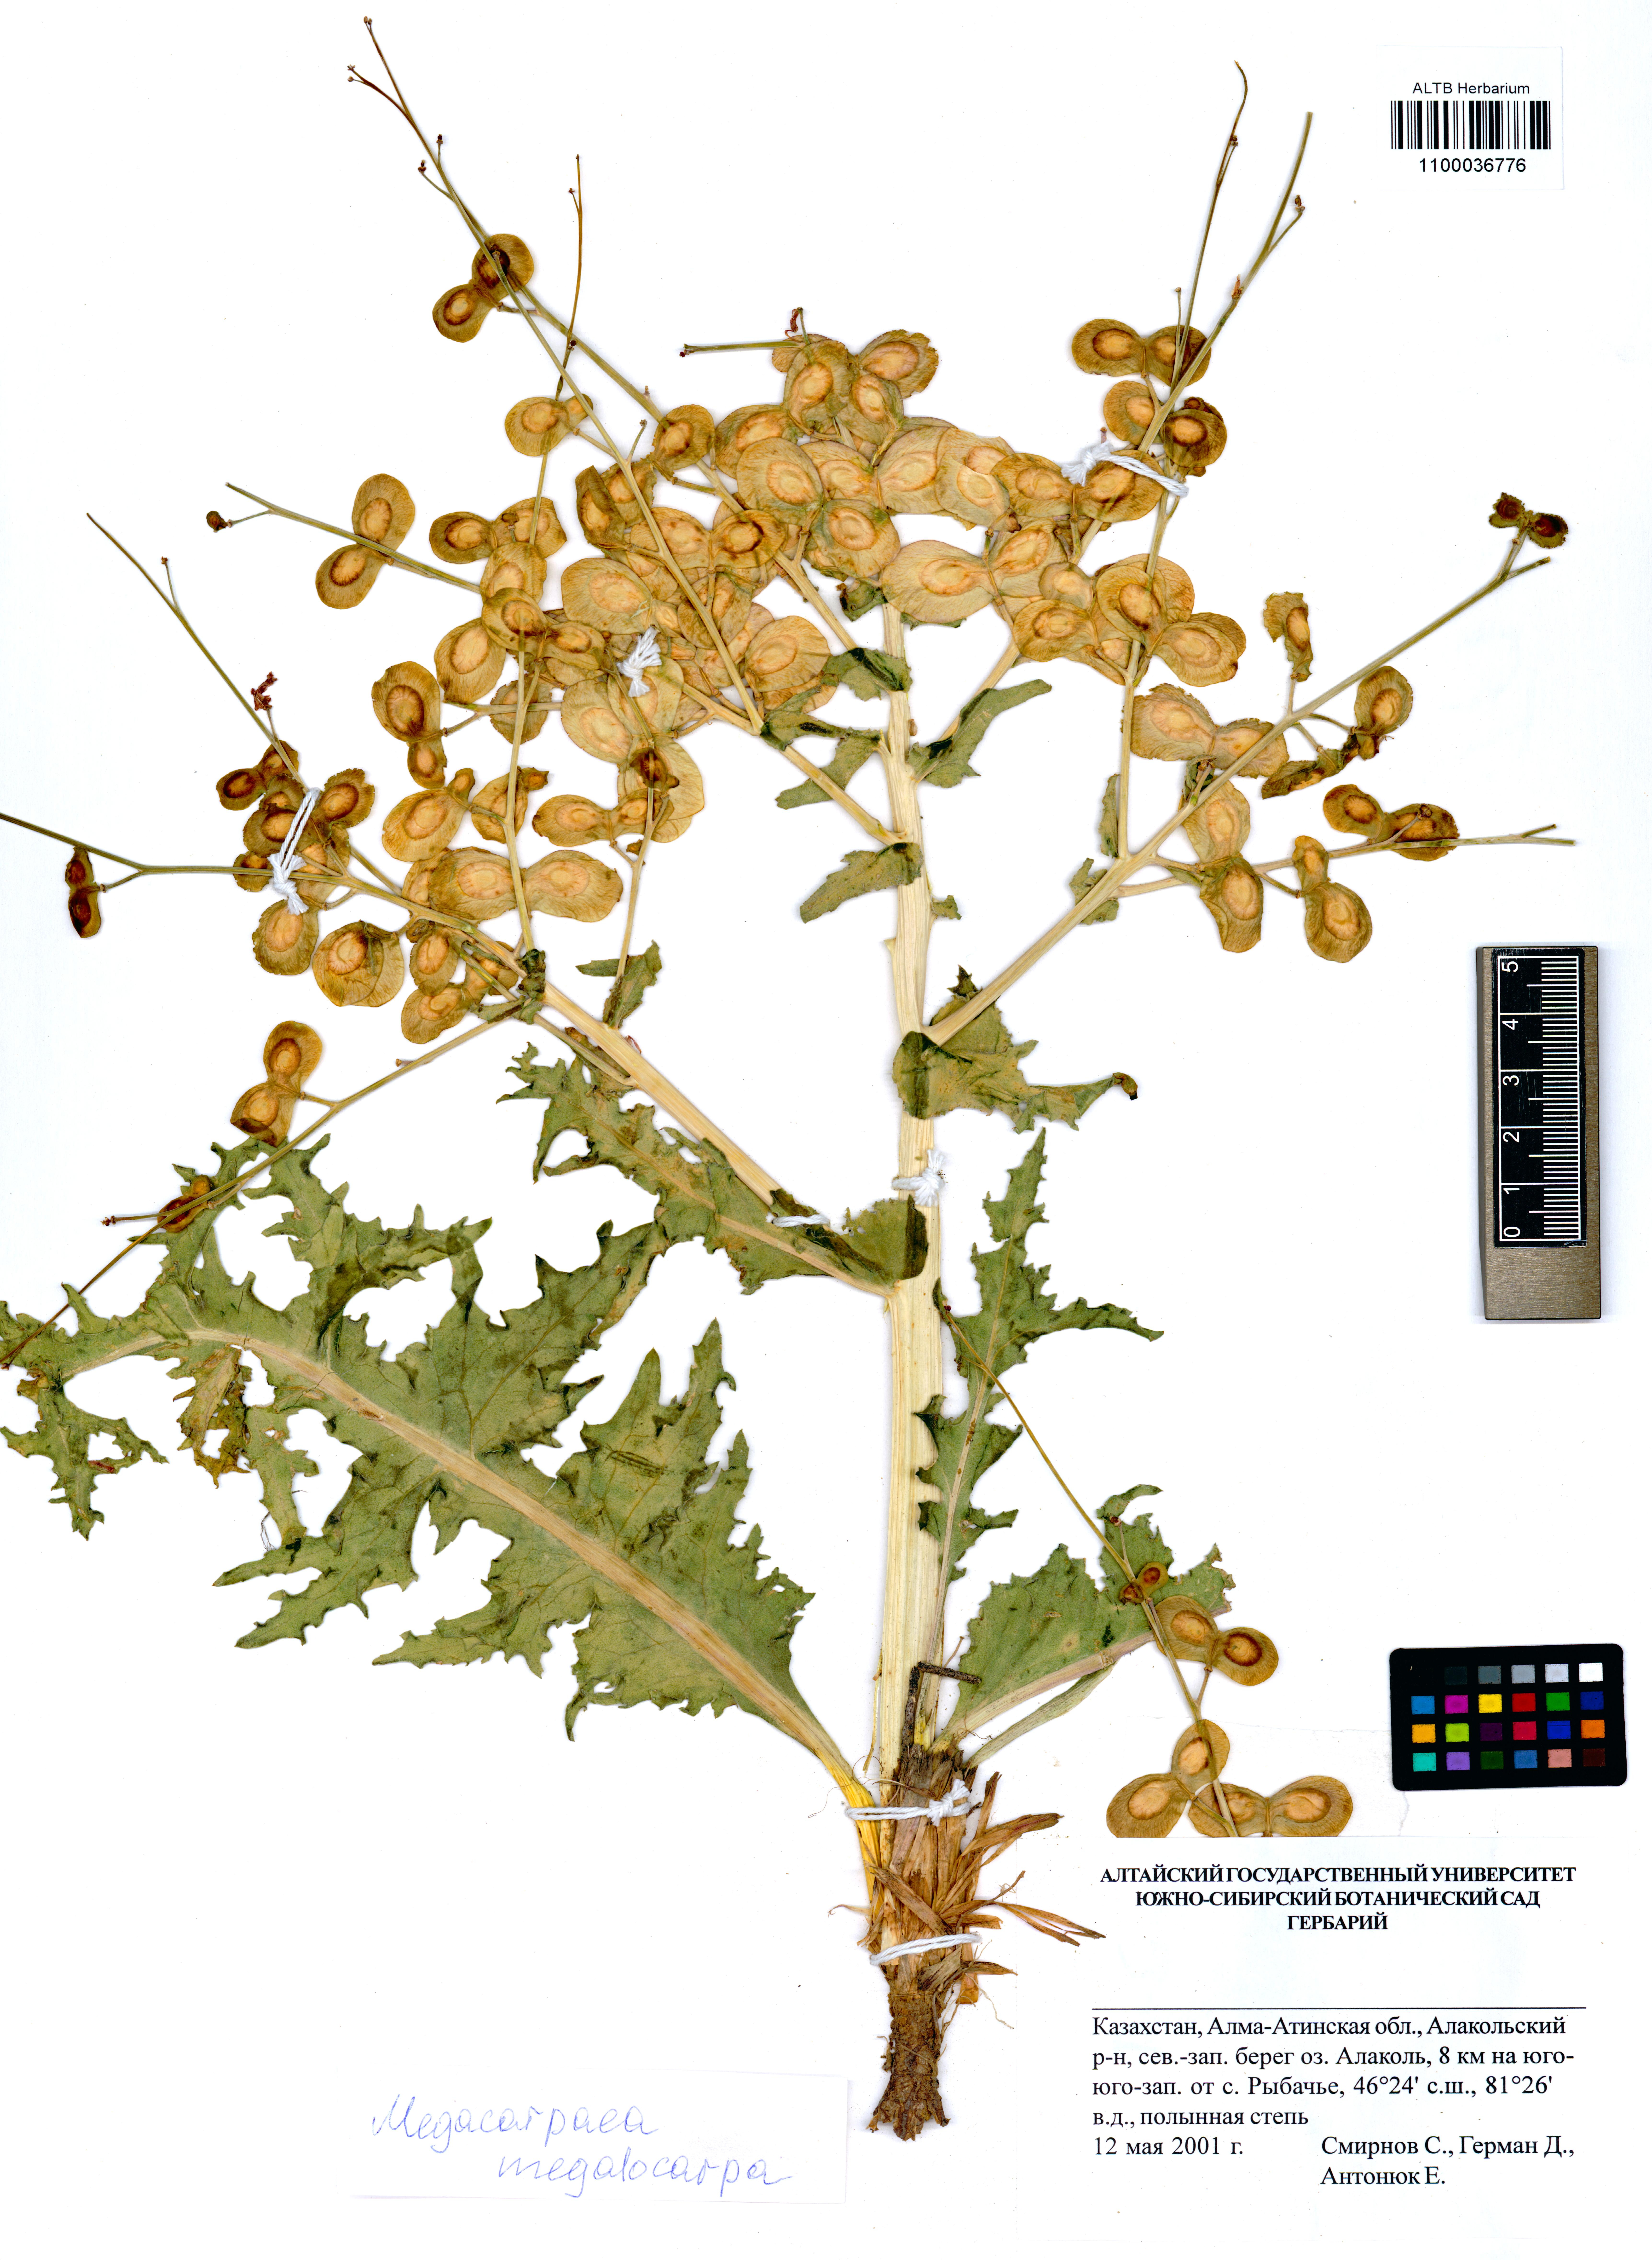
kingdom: Plantae
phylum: Tracheophyta
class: Magnoliopsida
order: Brassicales
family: Brassicaceae
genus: Megacarpaea
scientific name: Megacarpaea megalocarpa
